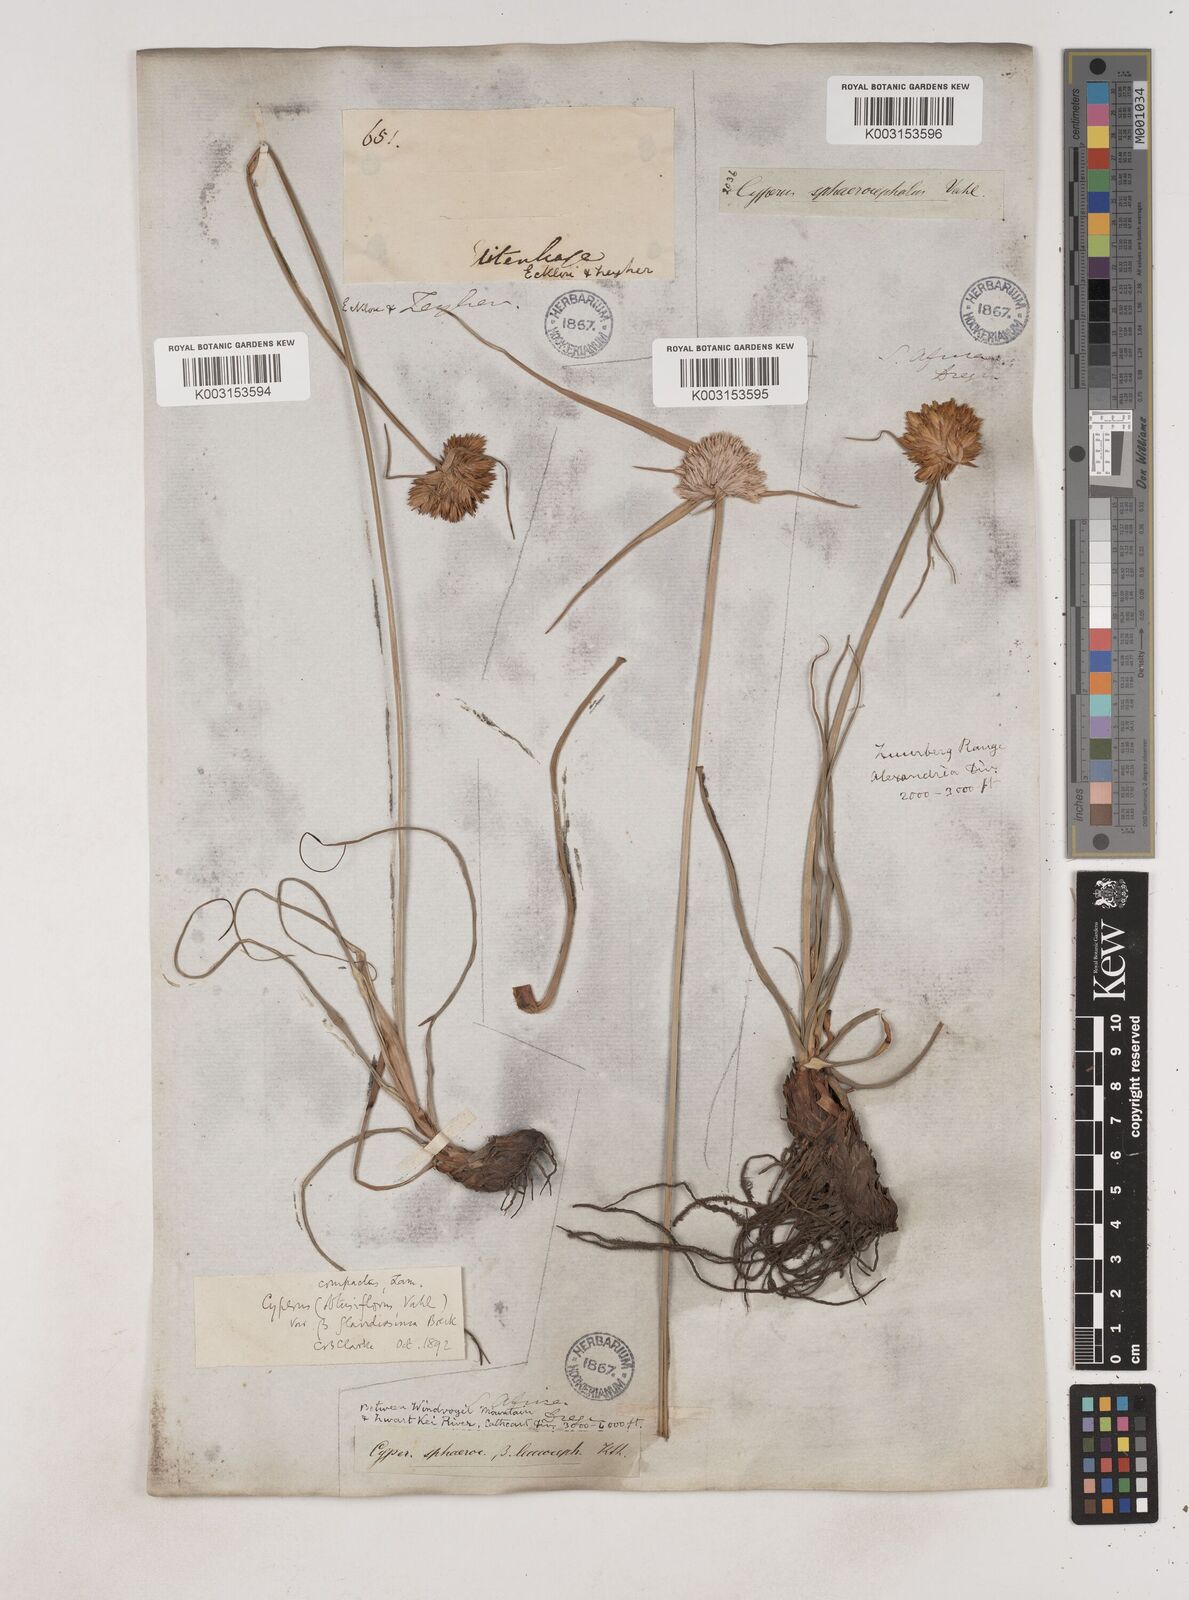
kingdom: Plantae
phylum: Tracheophyta
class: Liliopsida
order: Poales
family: Cyperaceae
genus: Cyperus
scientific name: Cyperus niveus
